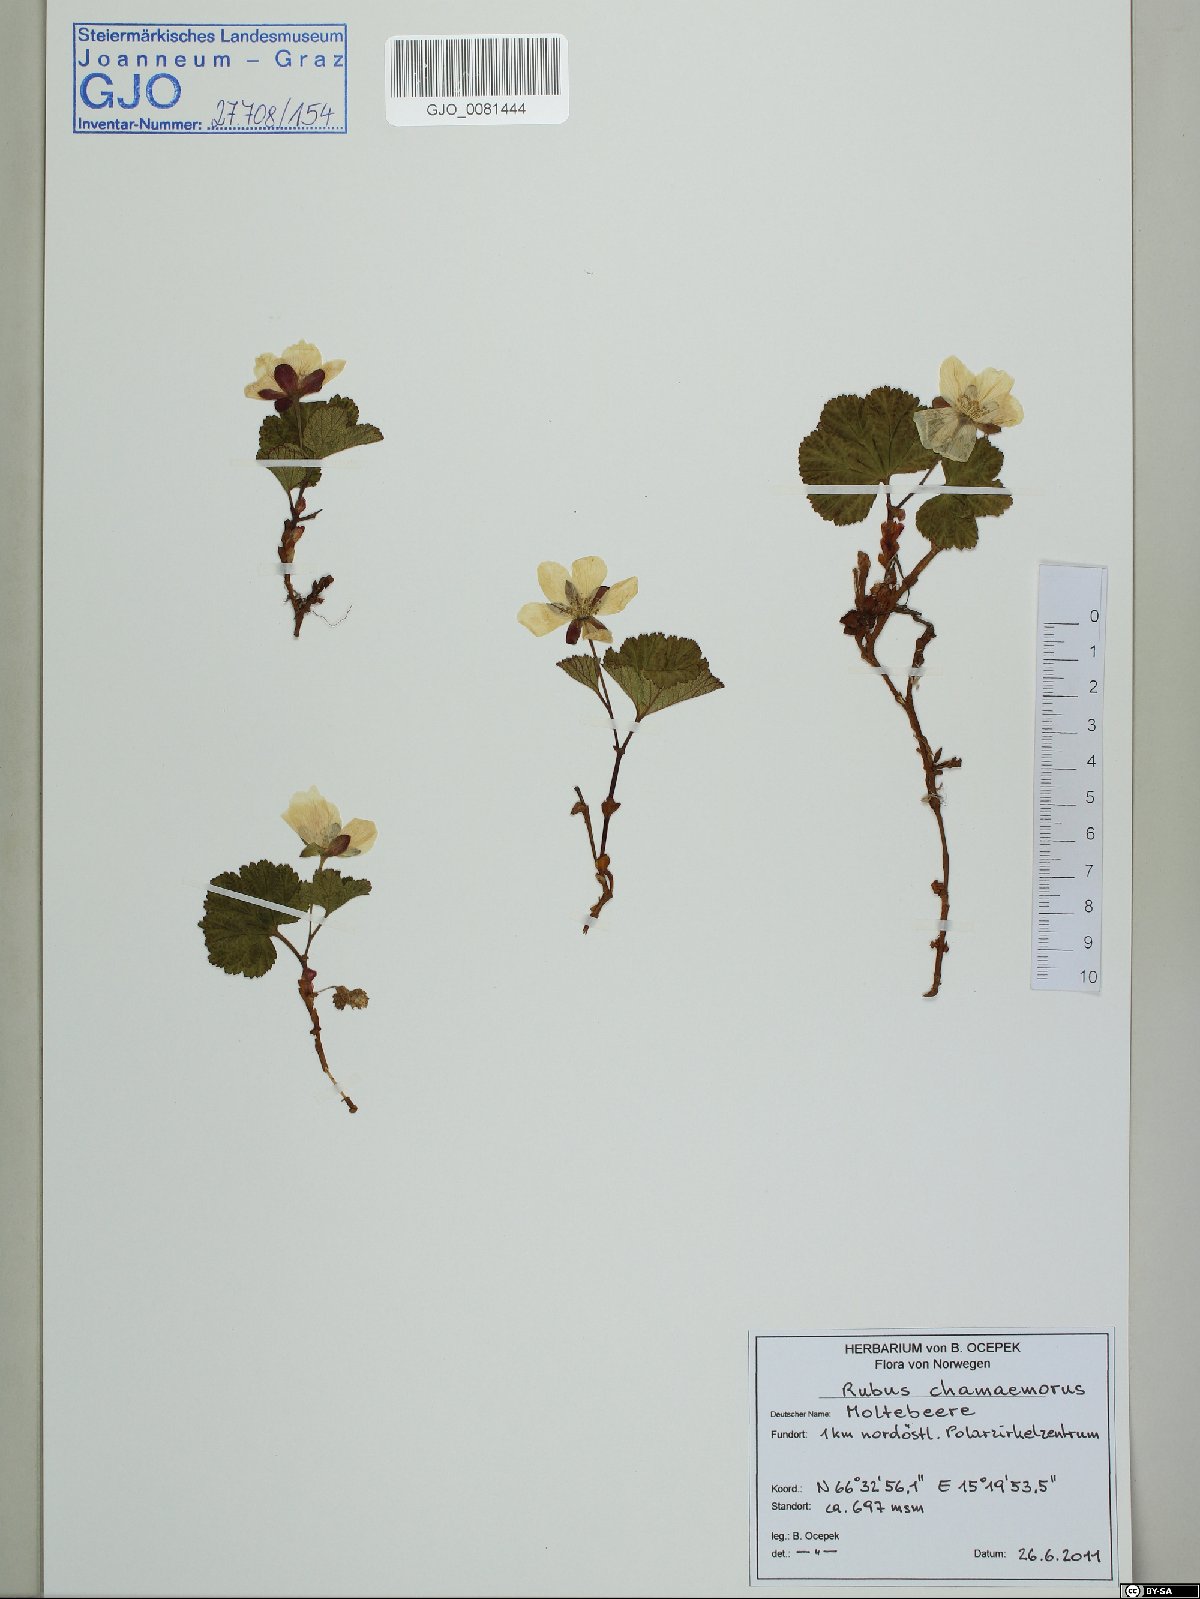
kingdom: Plantae
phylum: Tracheophyta
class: Magnoliopsida
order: Rosales
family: Rosaceae
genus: Rubus
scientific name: Rubus chamaemorus
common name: Cloudberry
